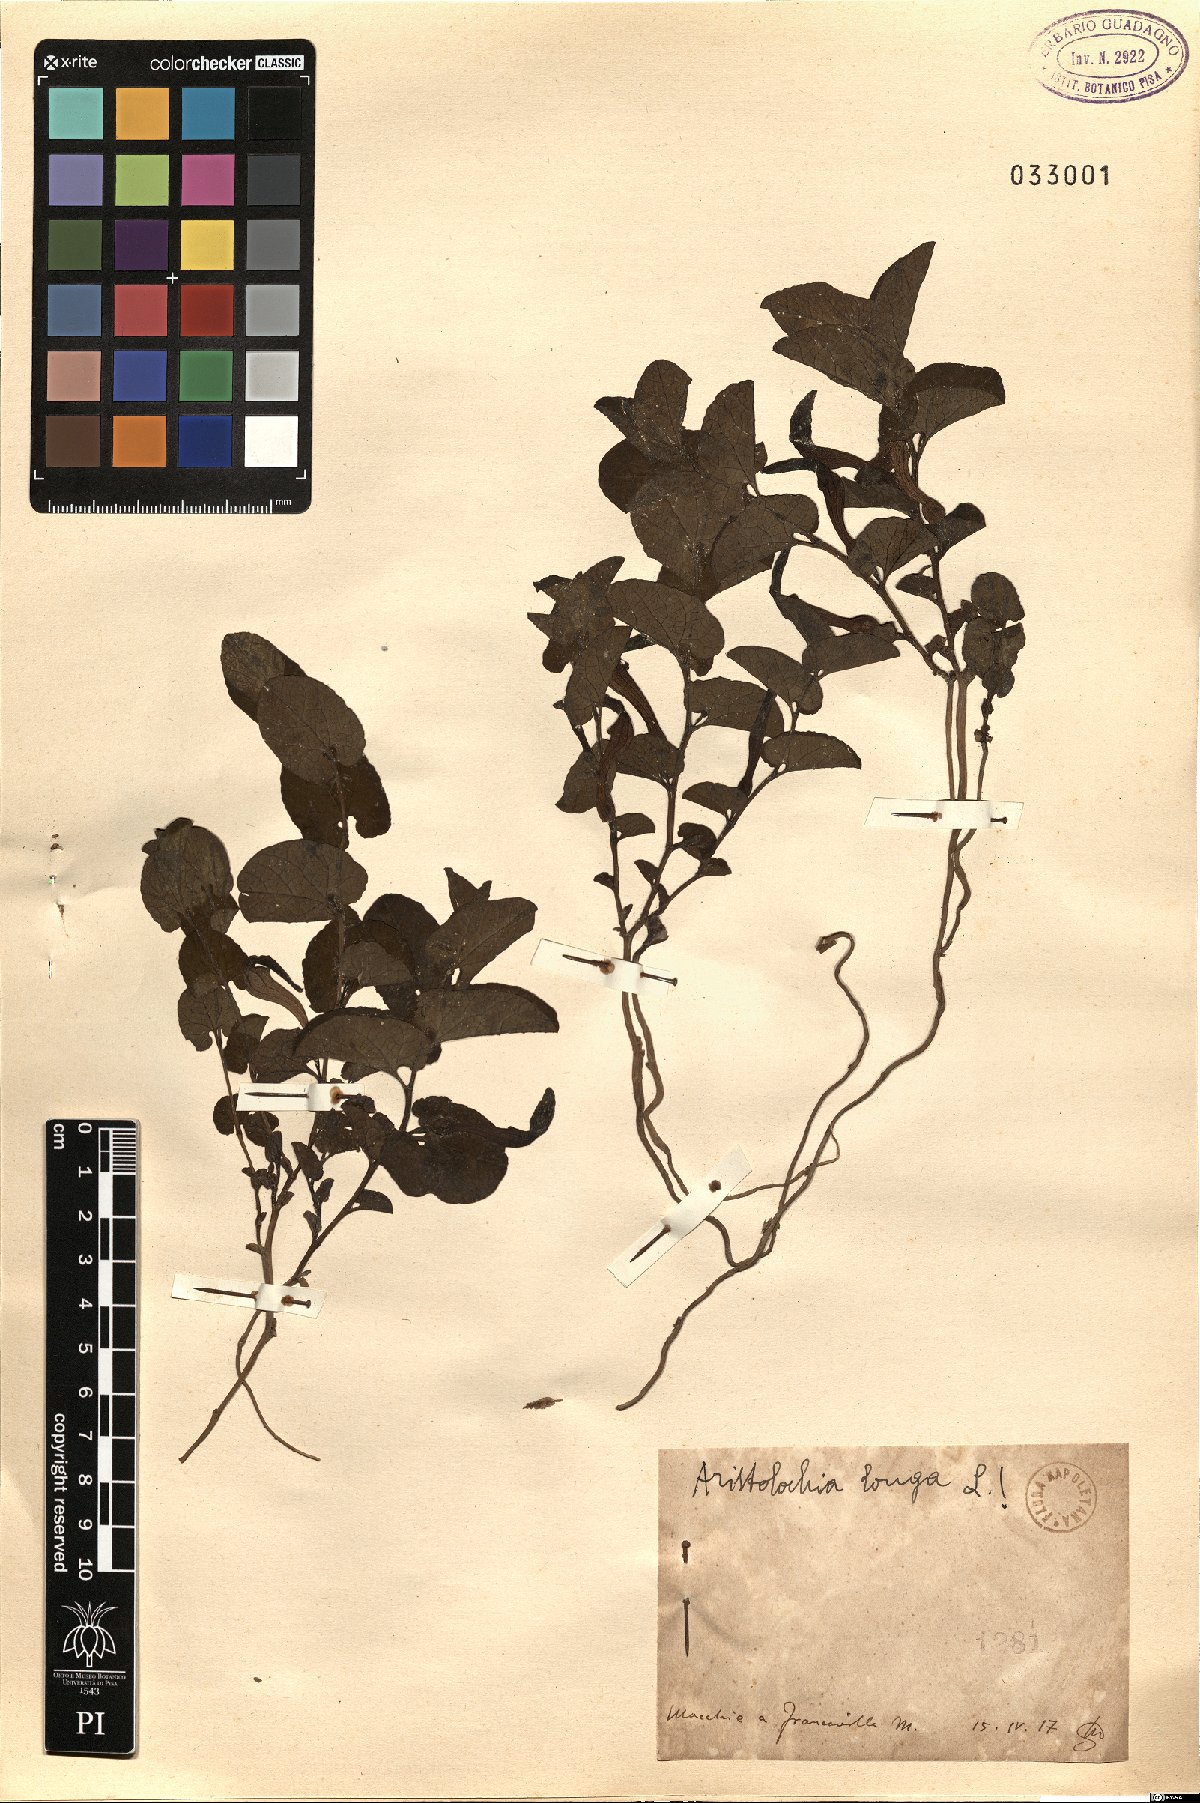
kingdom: Plantae
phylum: Tracheophyta
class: Magnoliopsida
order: Piperales
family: Aristolochiaceae
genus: Aristolochia
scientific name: Aristolochia fontanesii
